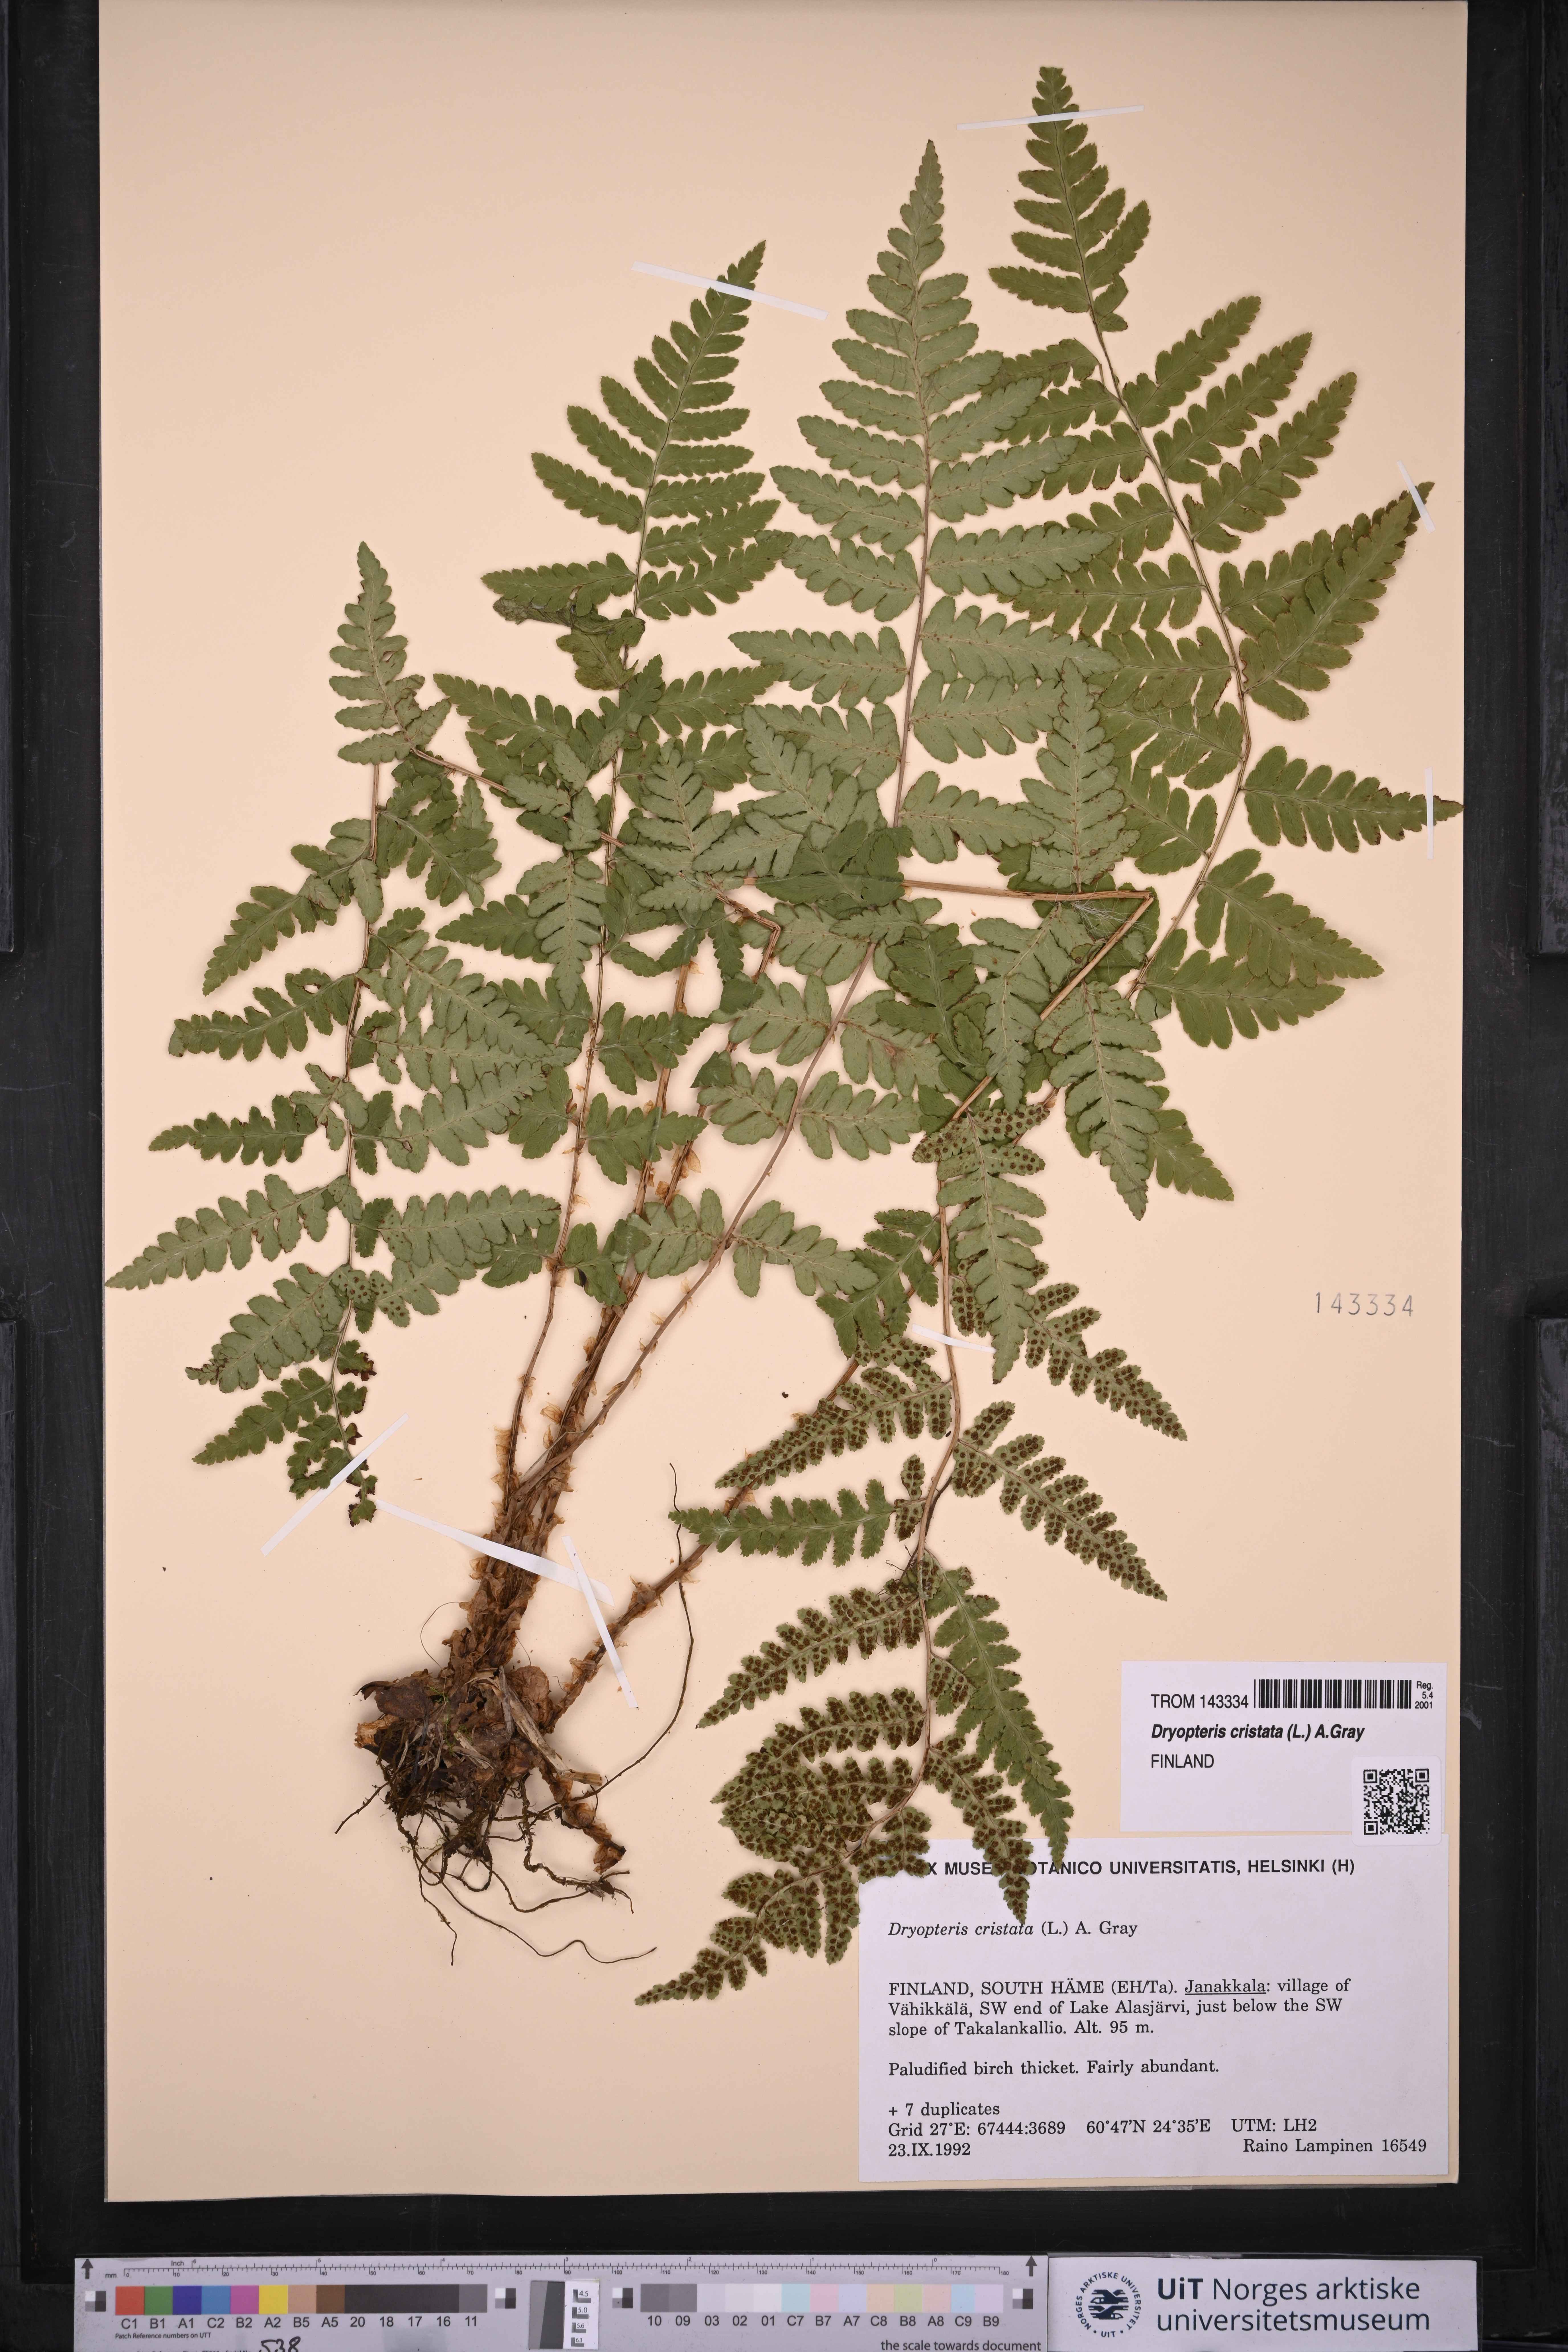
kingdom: Plantae
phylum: Tracheophyta
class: Polypodiopsida
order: Polypodiales
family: Dryopteridaceae
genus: Dryopteris
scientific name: Dryopteris cristata
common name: Crested wood fern
